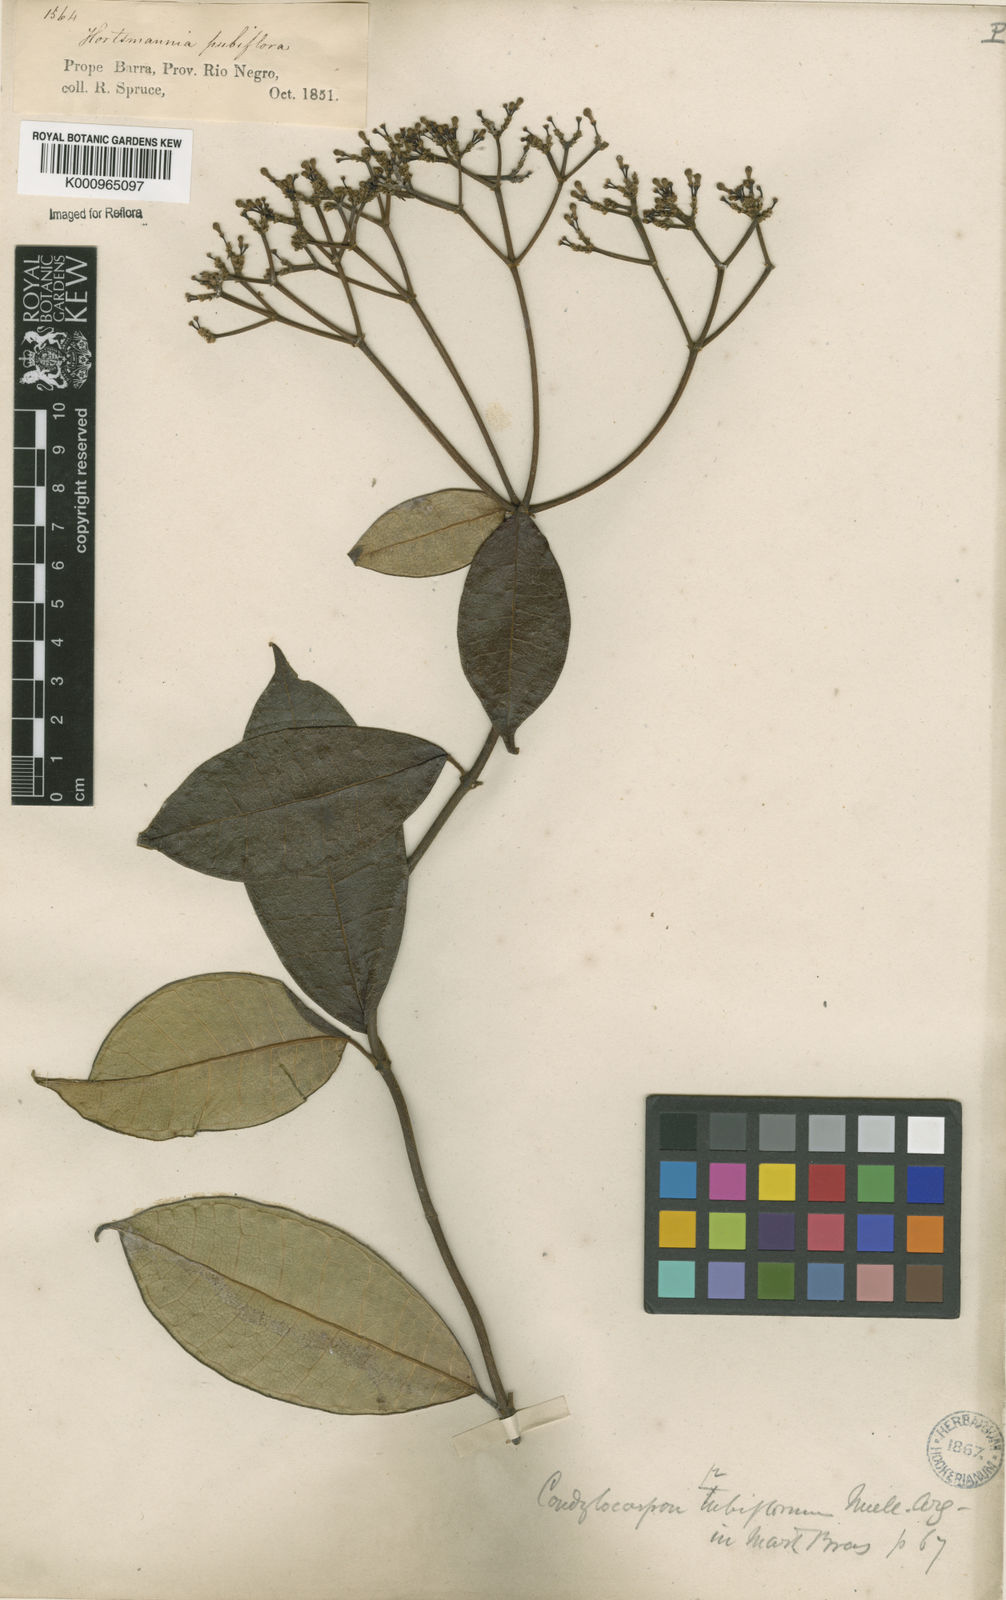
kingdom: Plantae
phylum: Tracheophyta
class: Magnoliopsida
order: Gentianales
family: Apocynaceae
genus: Condylocarpon
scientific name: Condylocarpon
